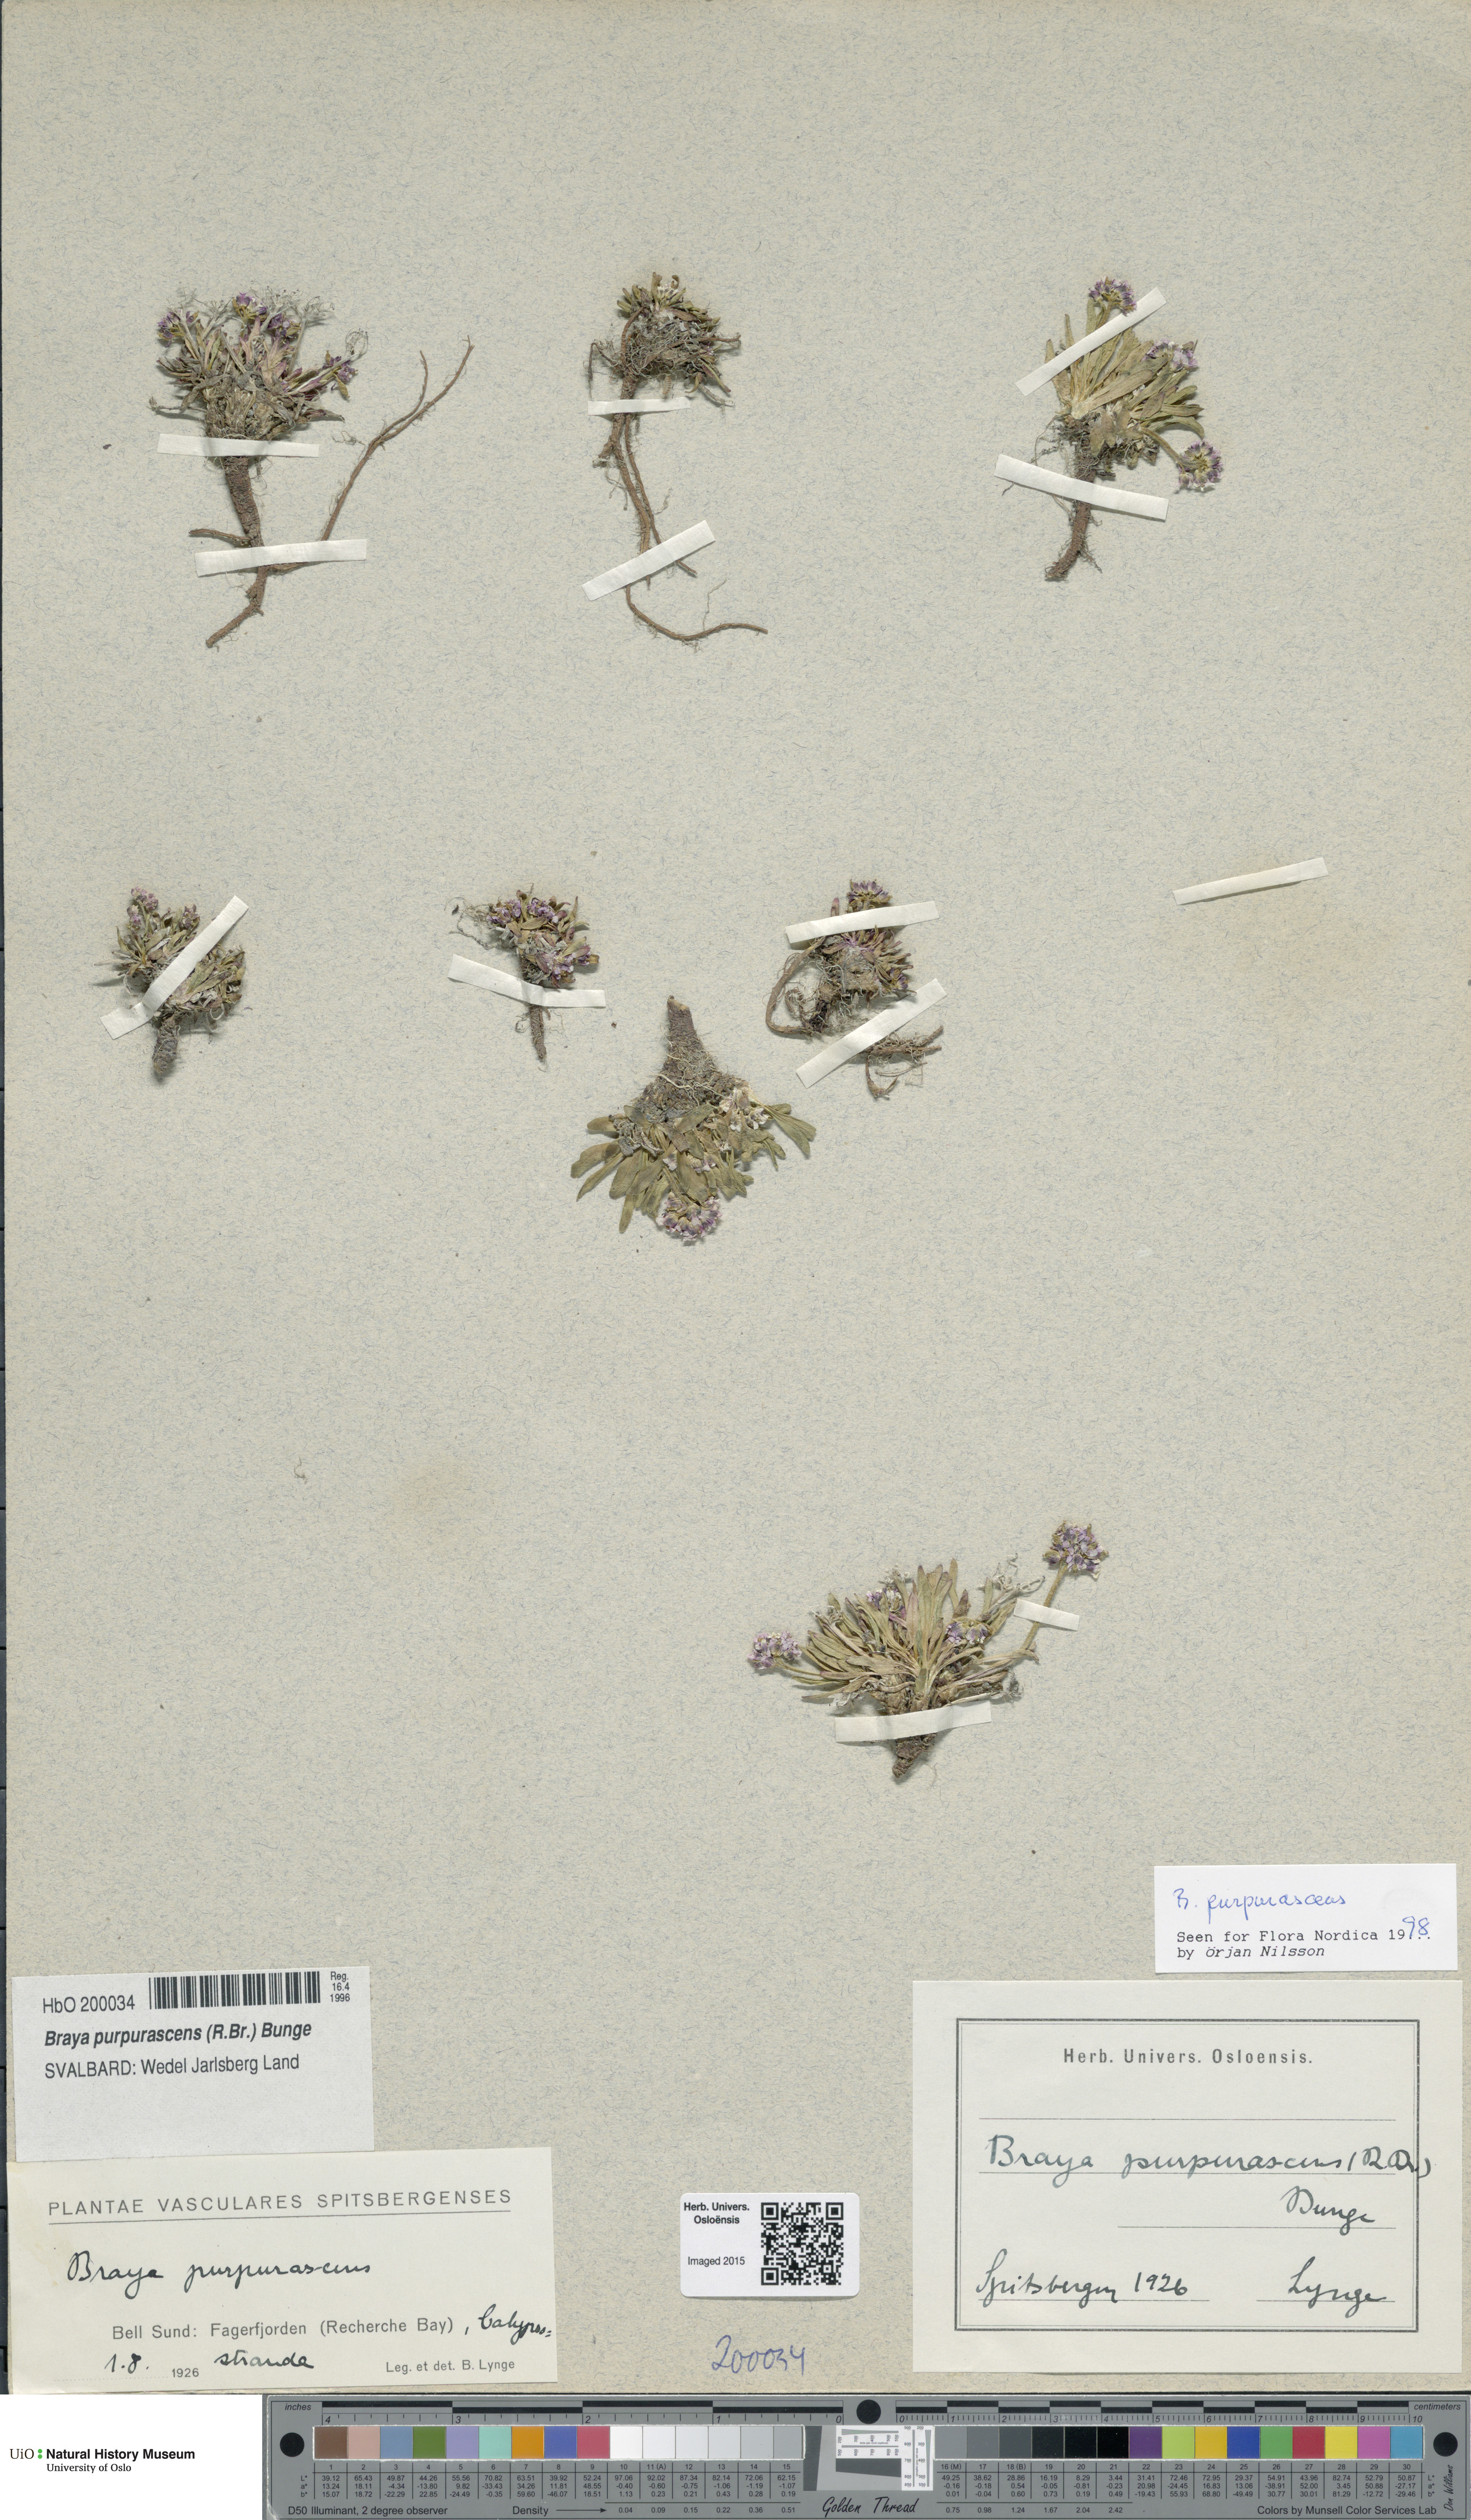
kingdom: Plantae
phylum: Tracheophyta
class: Magnoliopsida
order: Brassicales
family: Brassicaceae
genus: Braya
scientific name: Braya purpurascens
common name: Alpine braya
